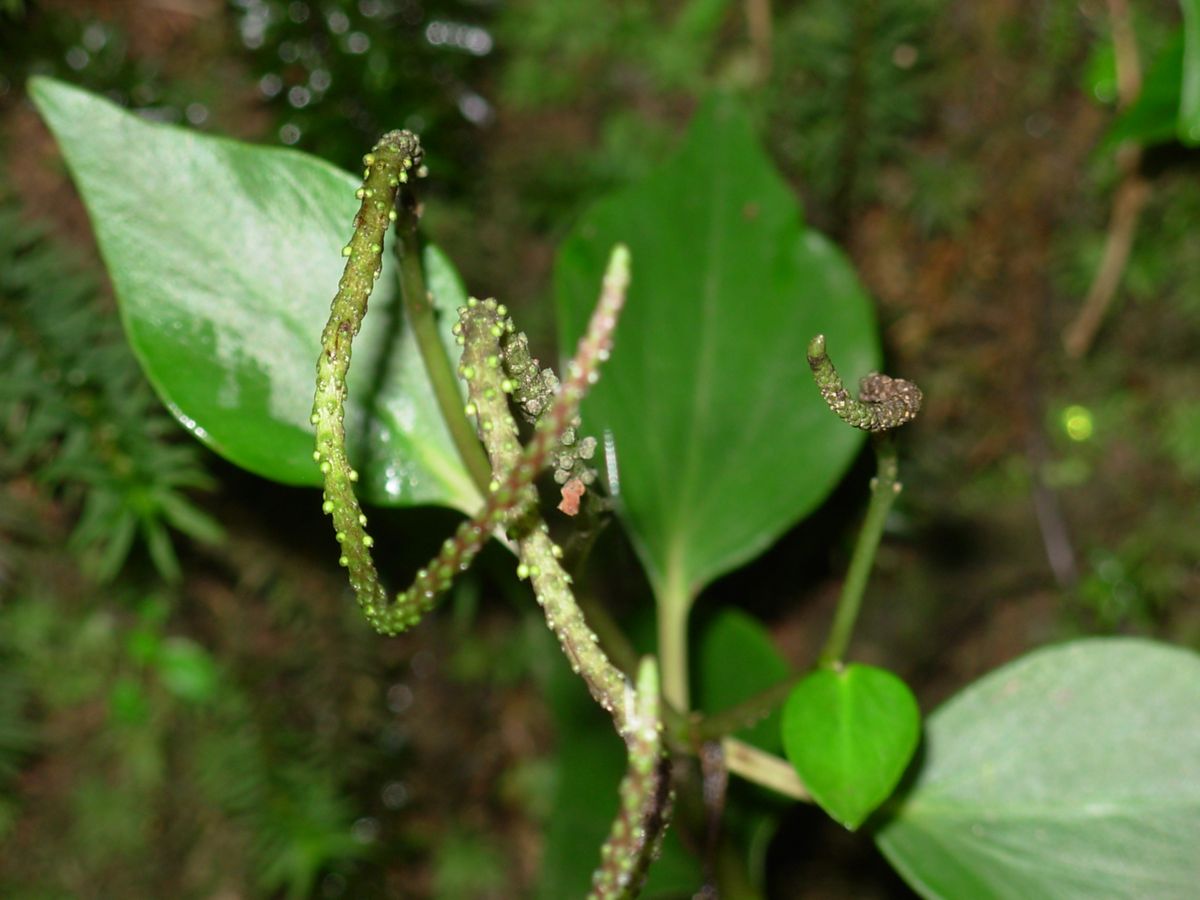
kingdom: Plantae
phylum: Tracheophyta
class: Magnoliopsida
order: Piperales
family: Piperaceae
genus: Peperomia
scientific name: Peperomia alpina
